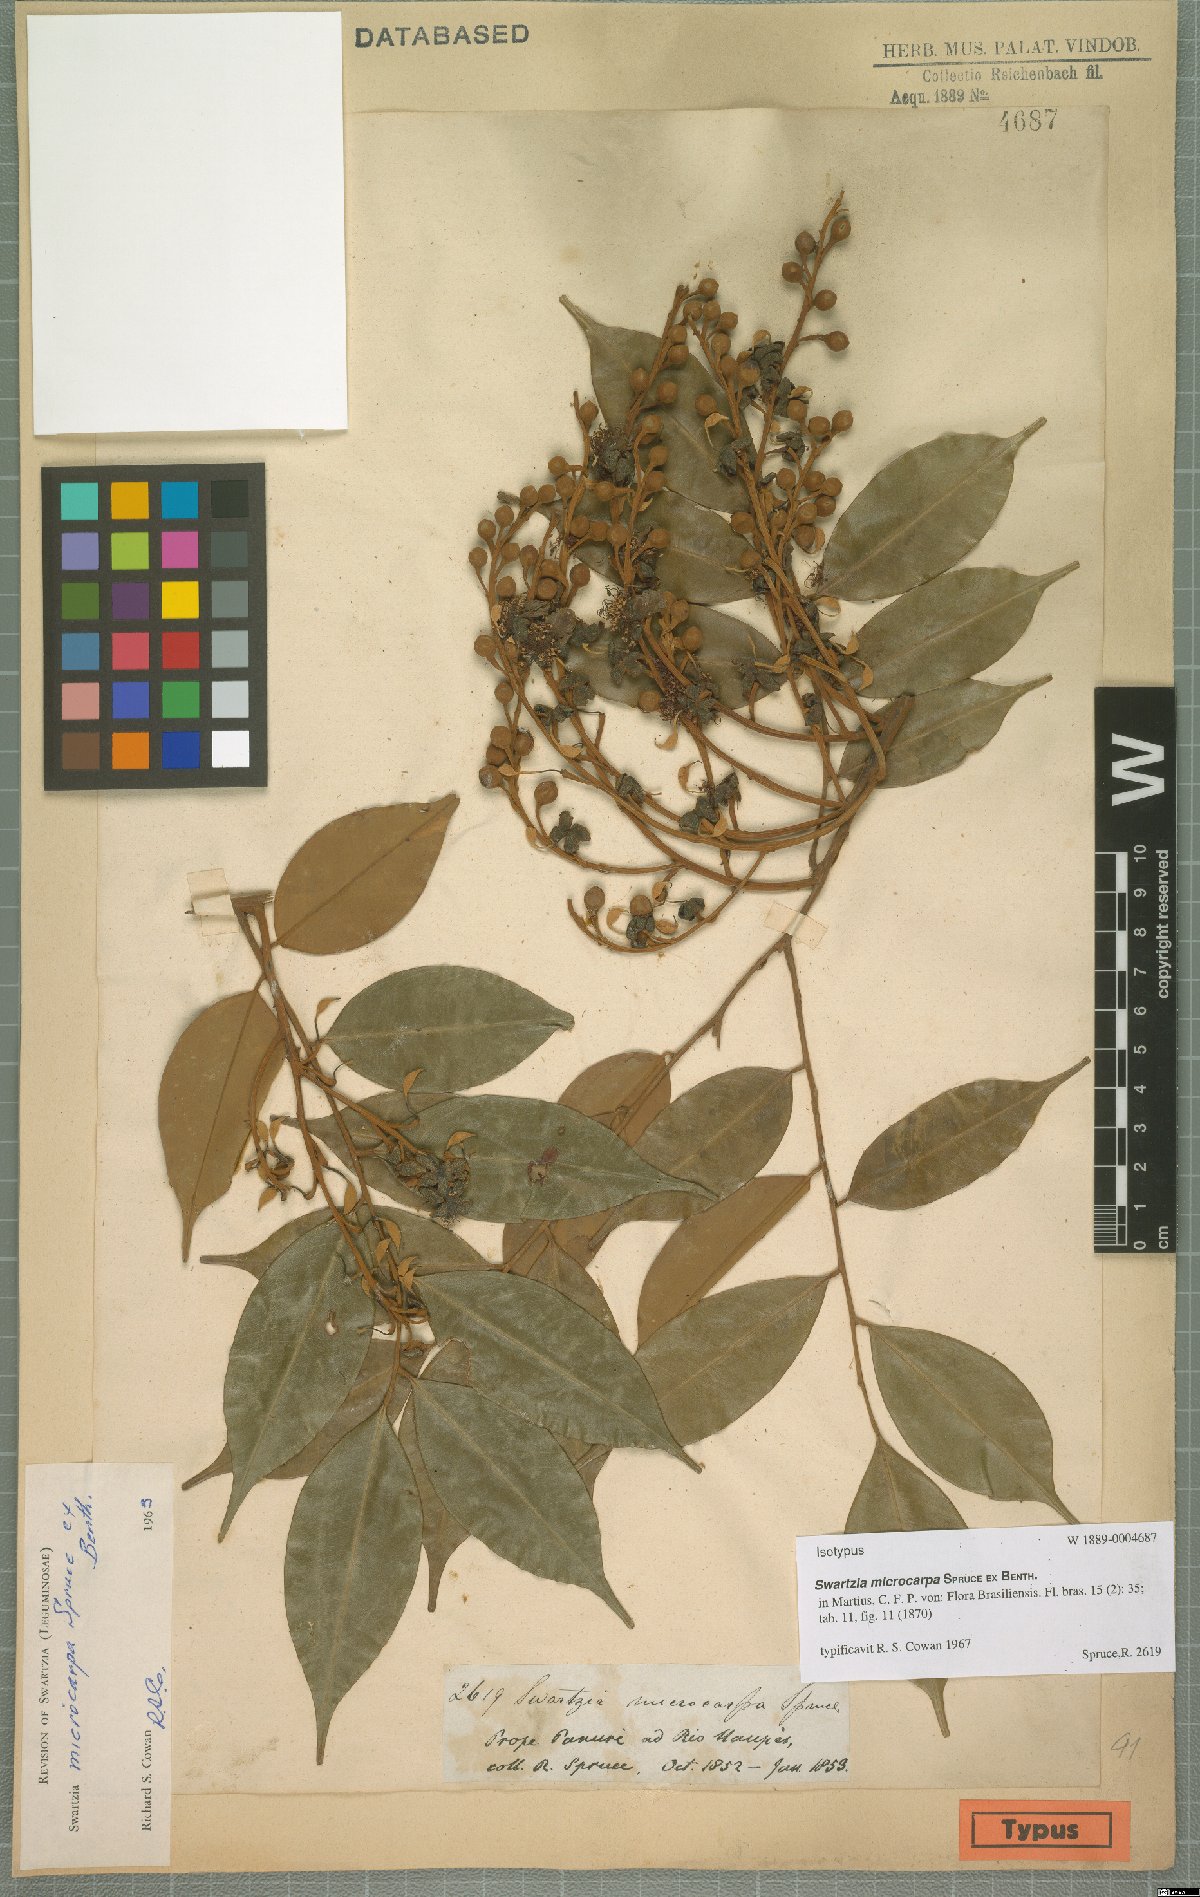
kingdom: Plantae
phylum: Tracheophyta
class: Magnoliopsida
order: Fabales
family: Fabaceae
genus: Swartzia
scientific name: Swartzia microcarpa
